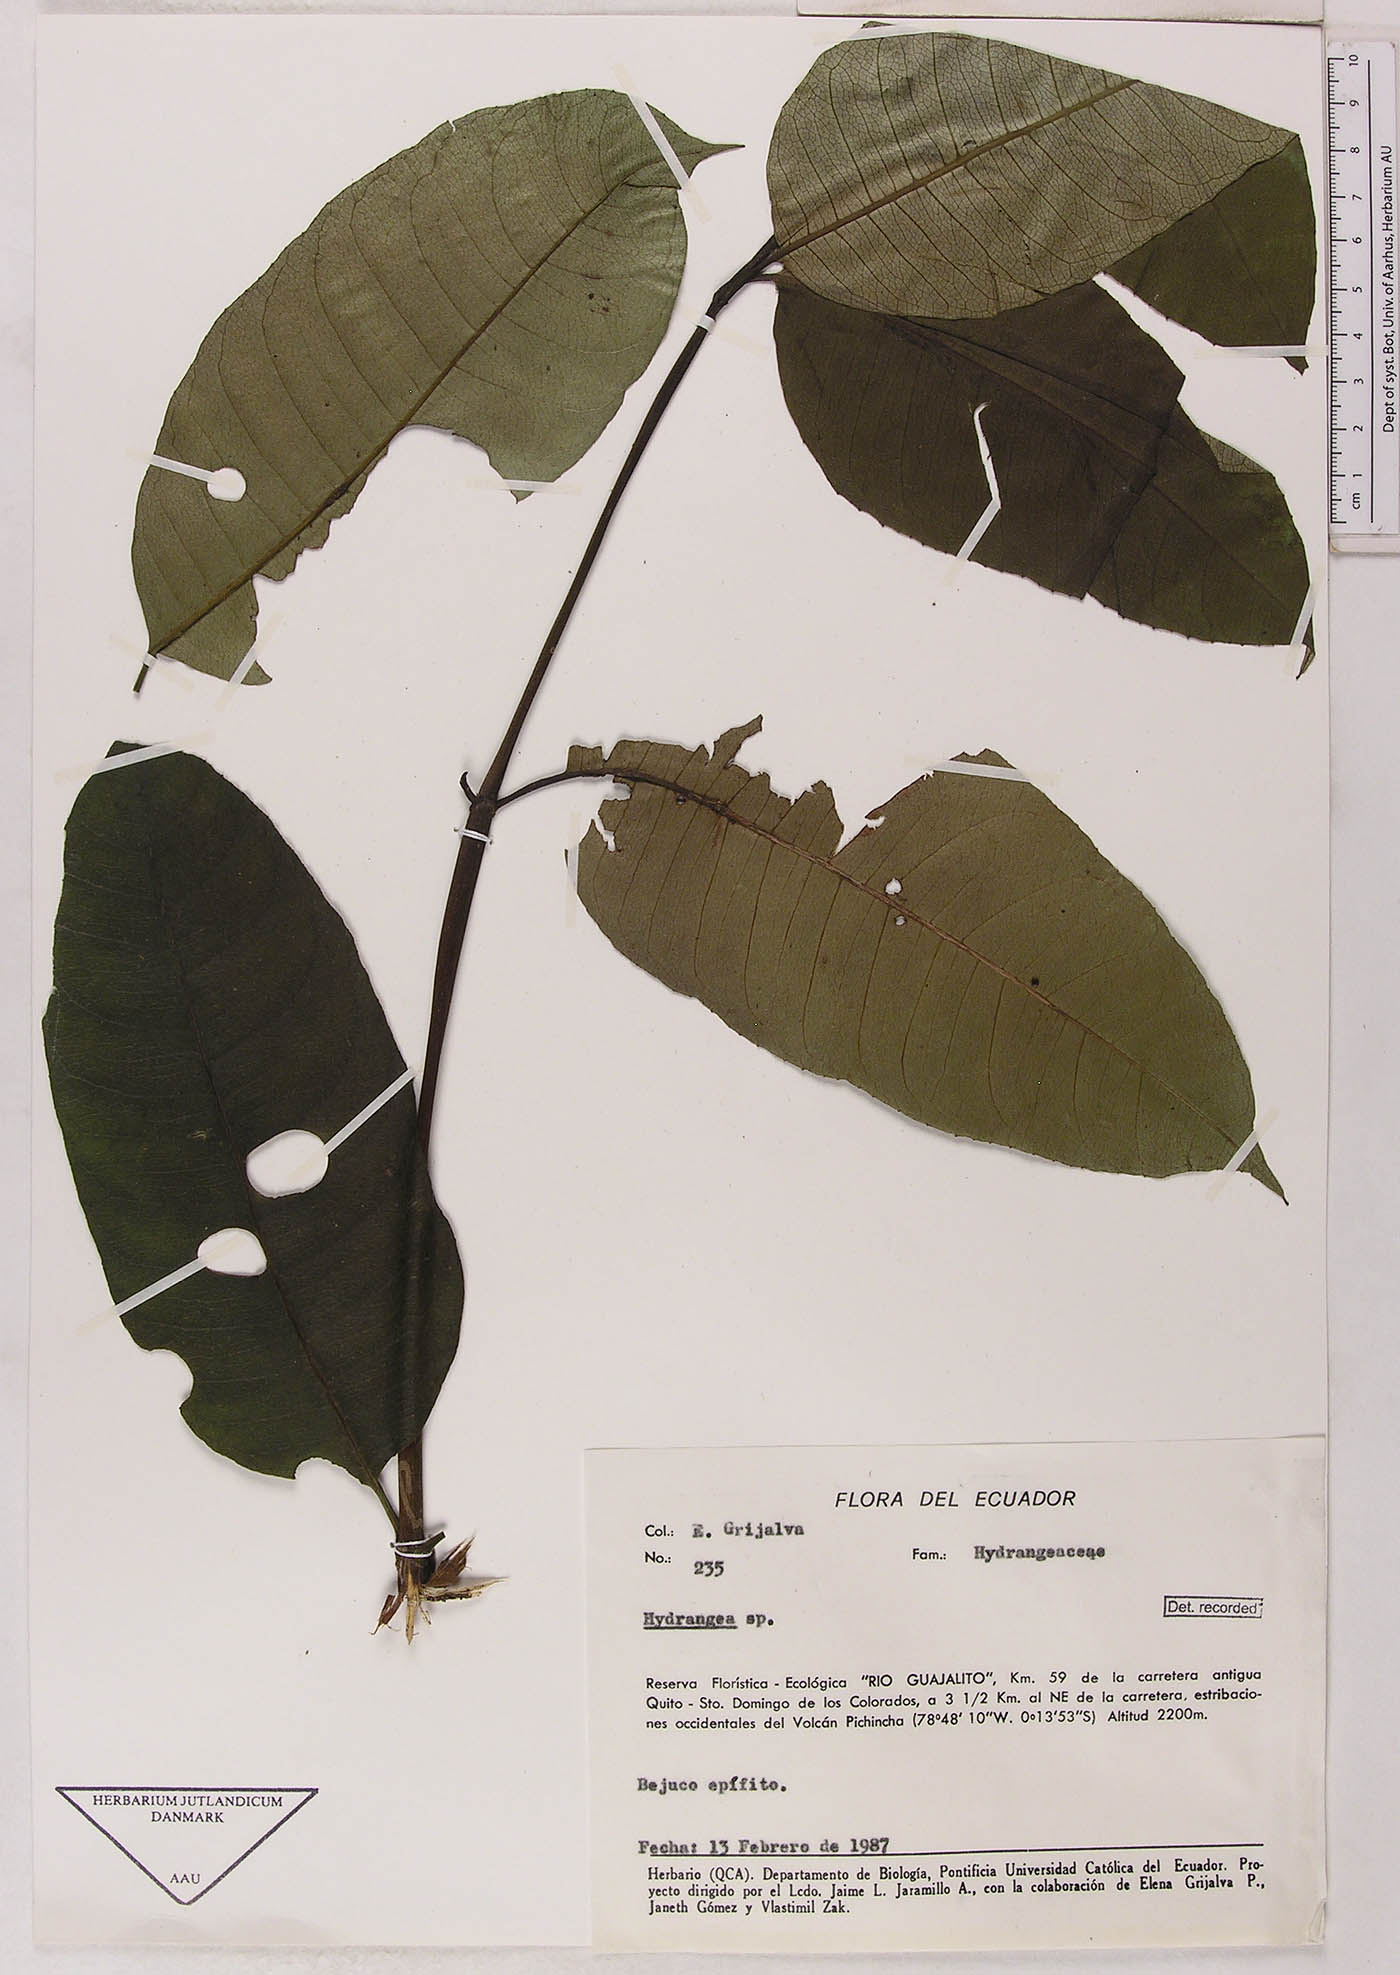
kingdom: Plantae
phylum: Tracheophyta
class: Magnoliopsida
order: Cornales
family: Hydrangeaceae
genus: Hydrangea
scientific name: Hydrangea
